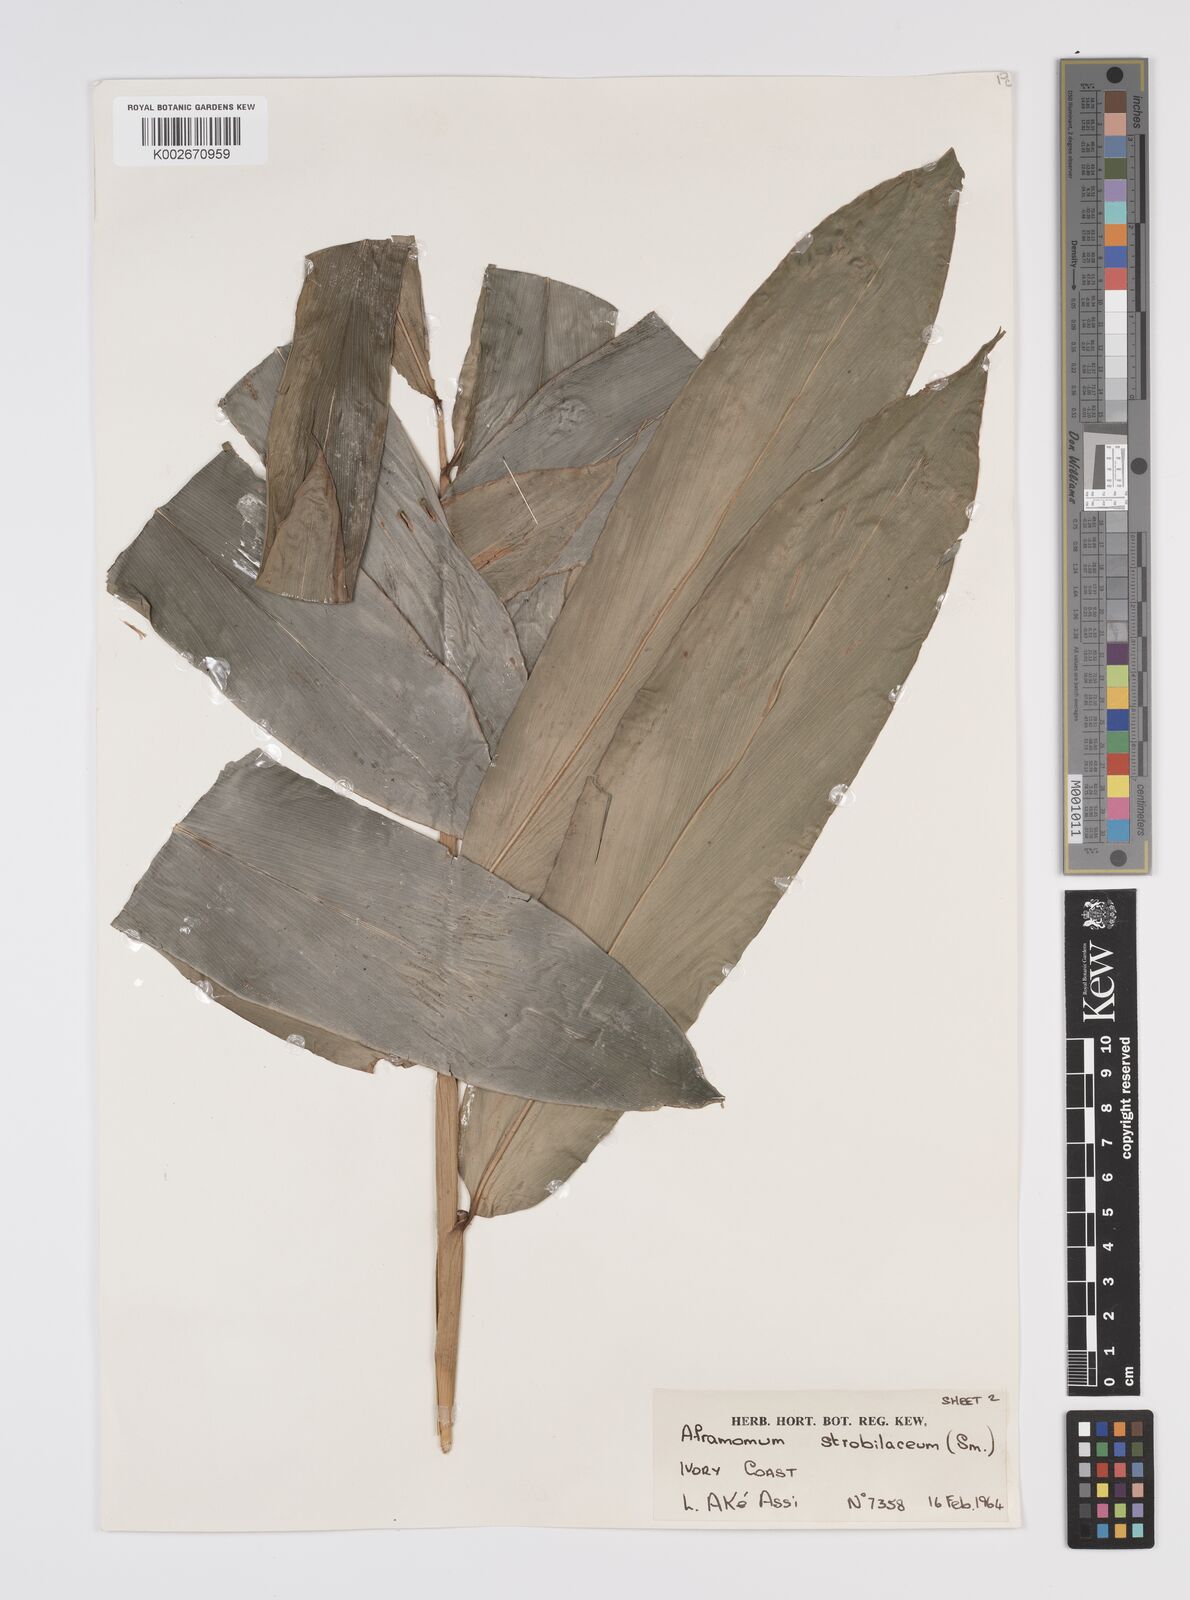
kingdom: Plantae
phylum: Tracheophyta
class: Liliopsida
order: Zingiberales
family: Zingiberaceae
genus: Aframomum
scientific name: Aframomum strobilaceum
